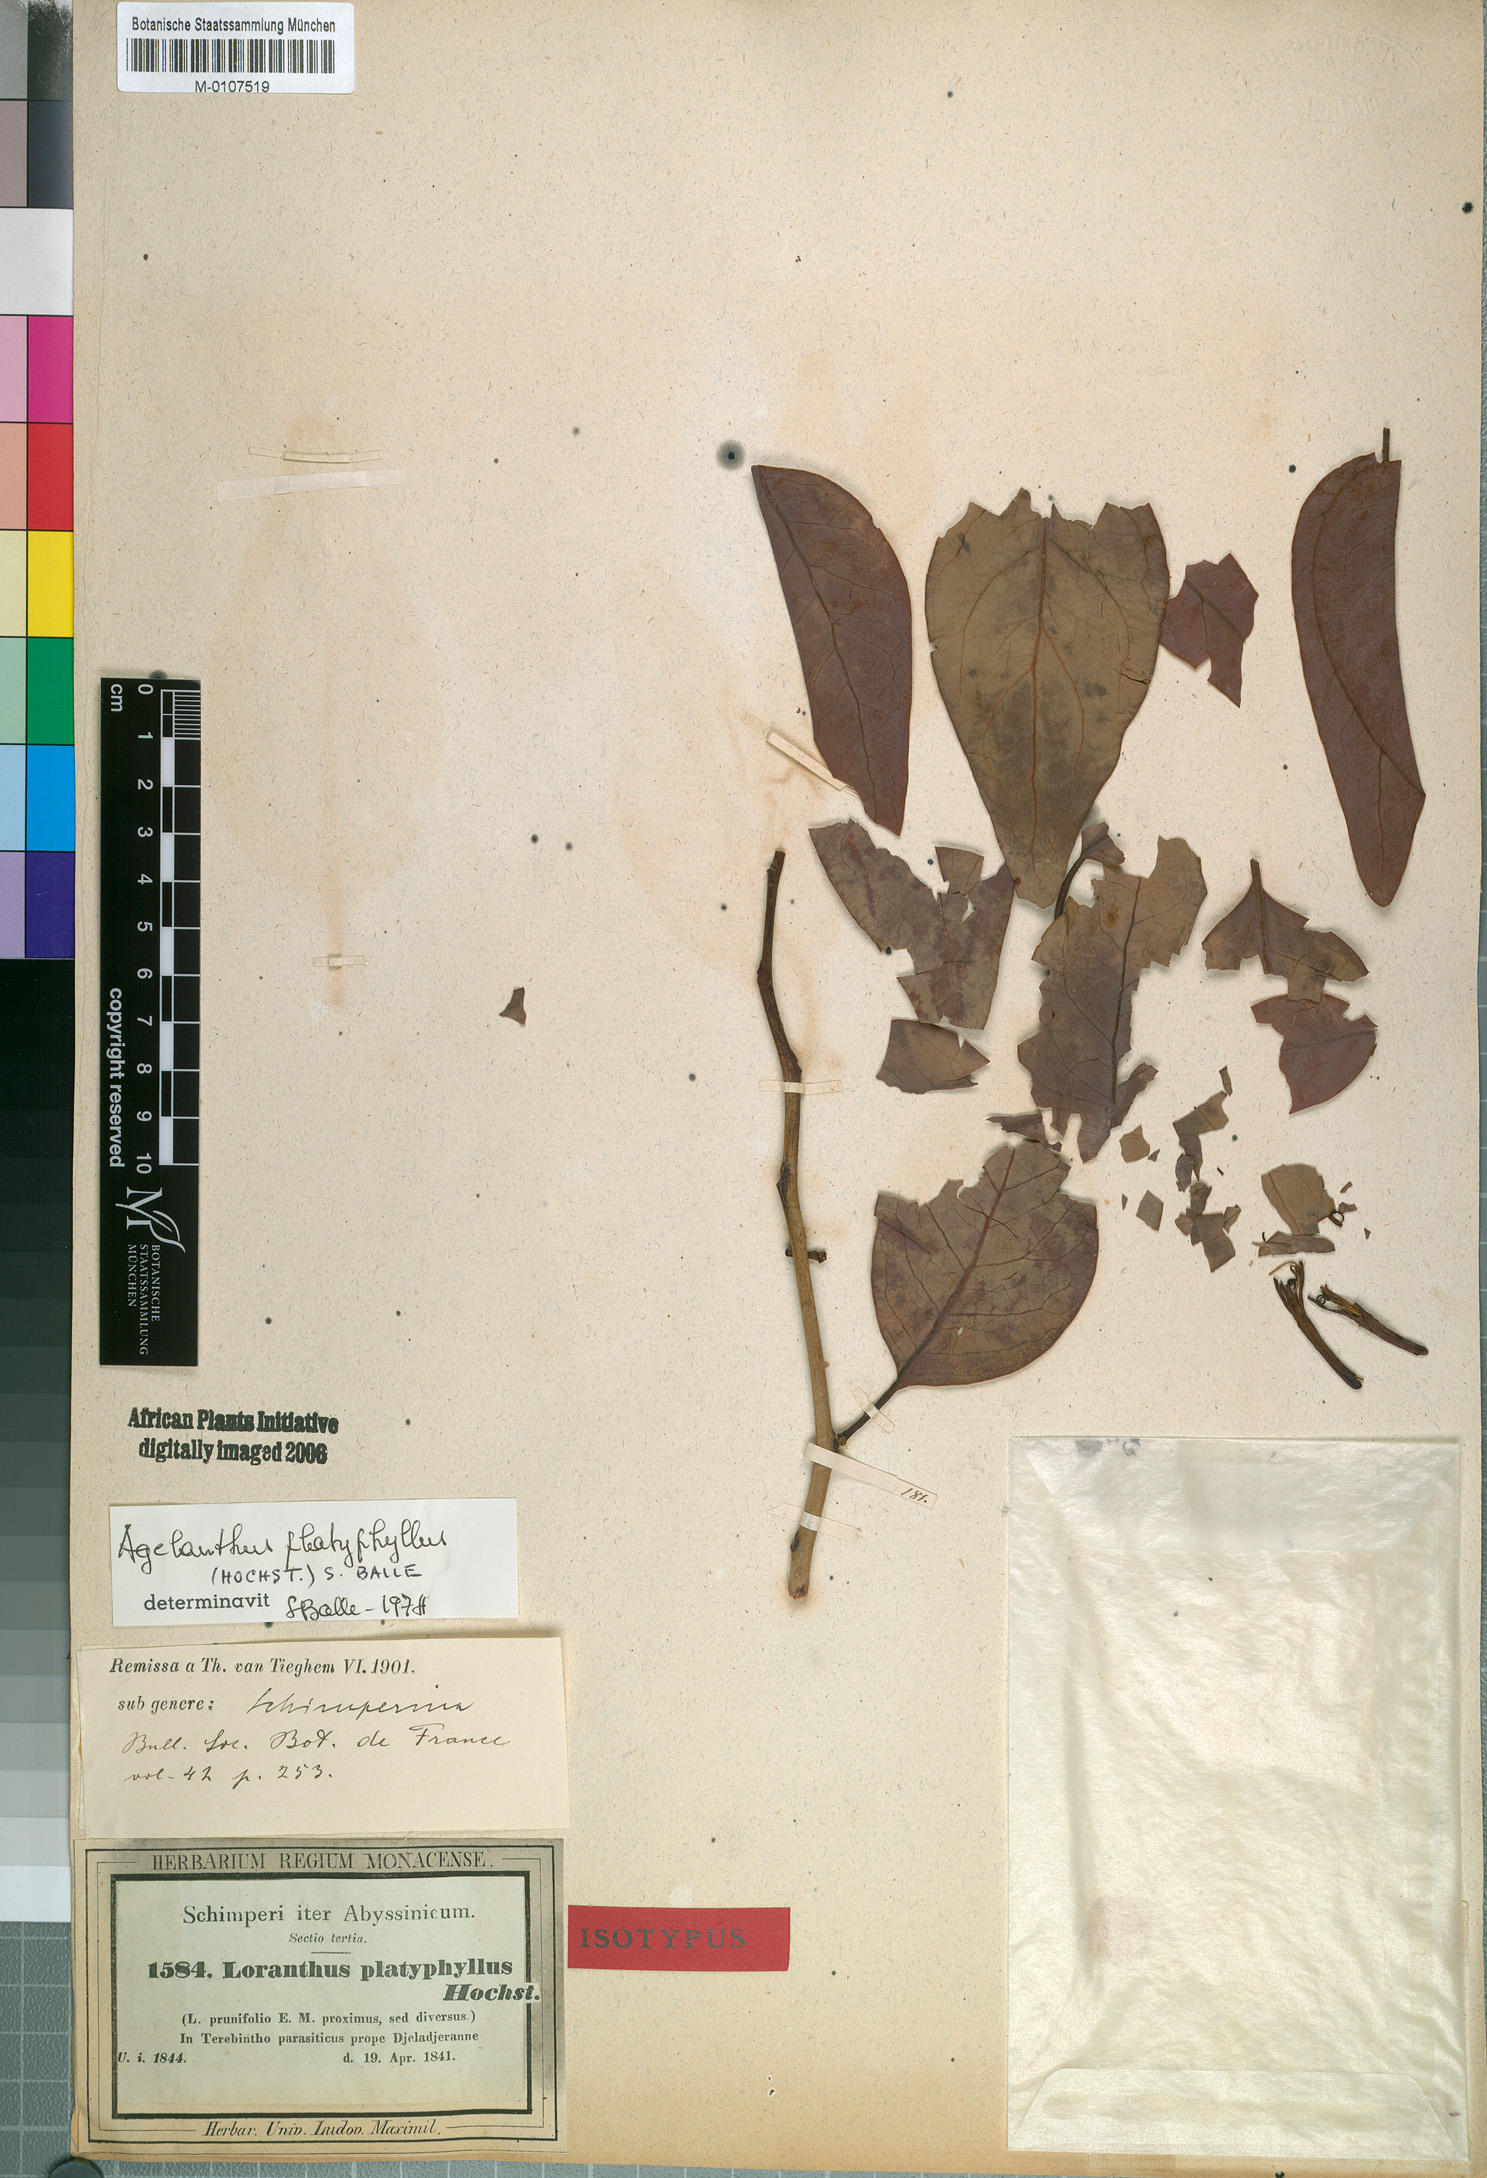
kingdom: Plantae
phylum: Tracheophyta
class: Magnoliopsida
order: Santalales
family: Loranthaceae
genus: Agelanthus
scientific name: Agelanthus platyphyllus
